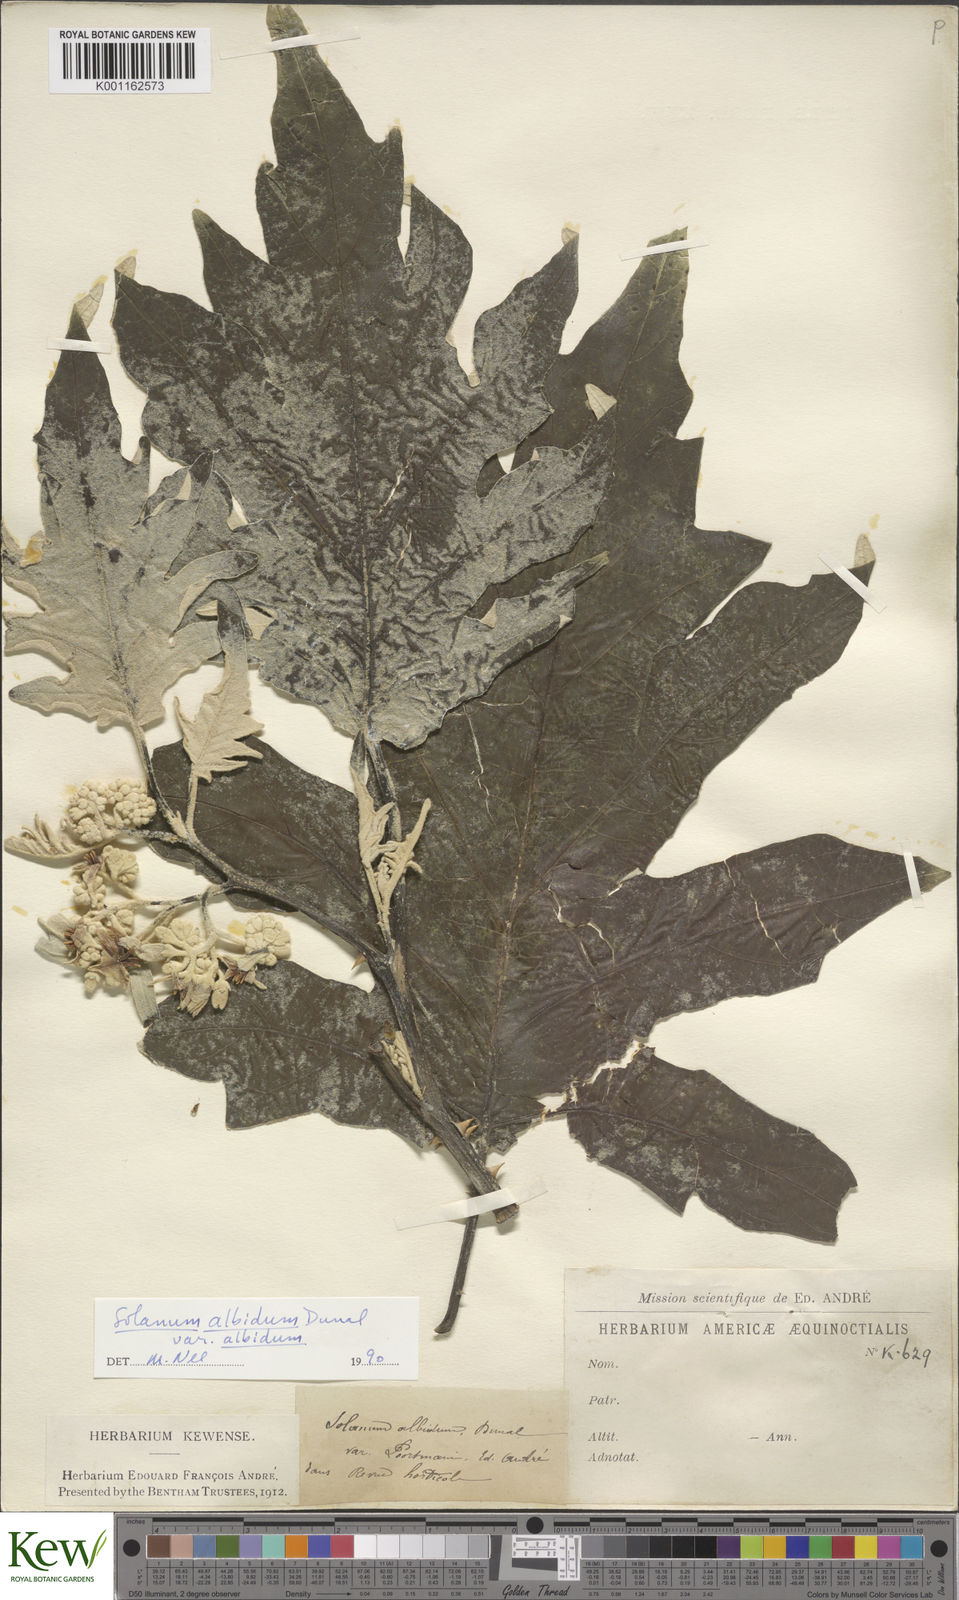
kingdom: Plantae
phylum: Tracheophyta
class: Magnoliopsida
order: Solanales
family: Solanaceae
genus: Solanum
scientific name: Solanum albidum
